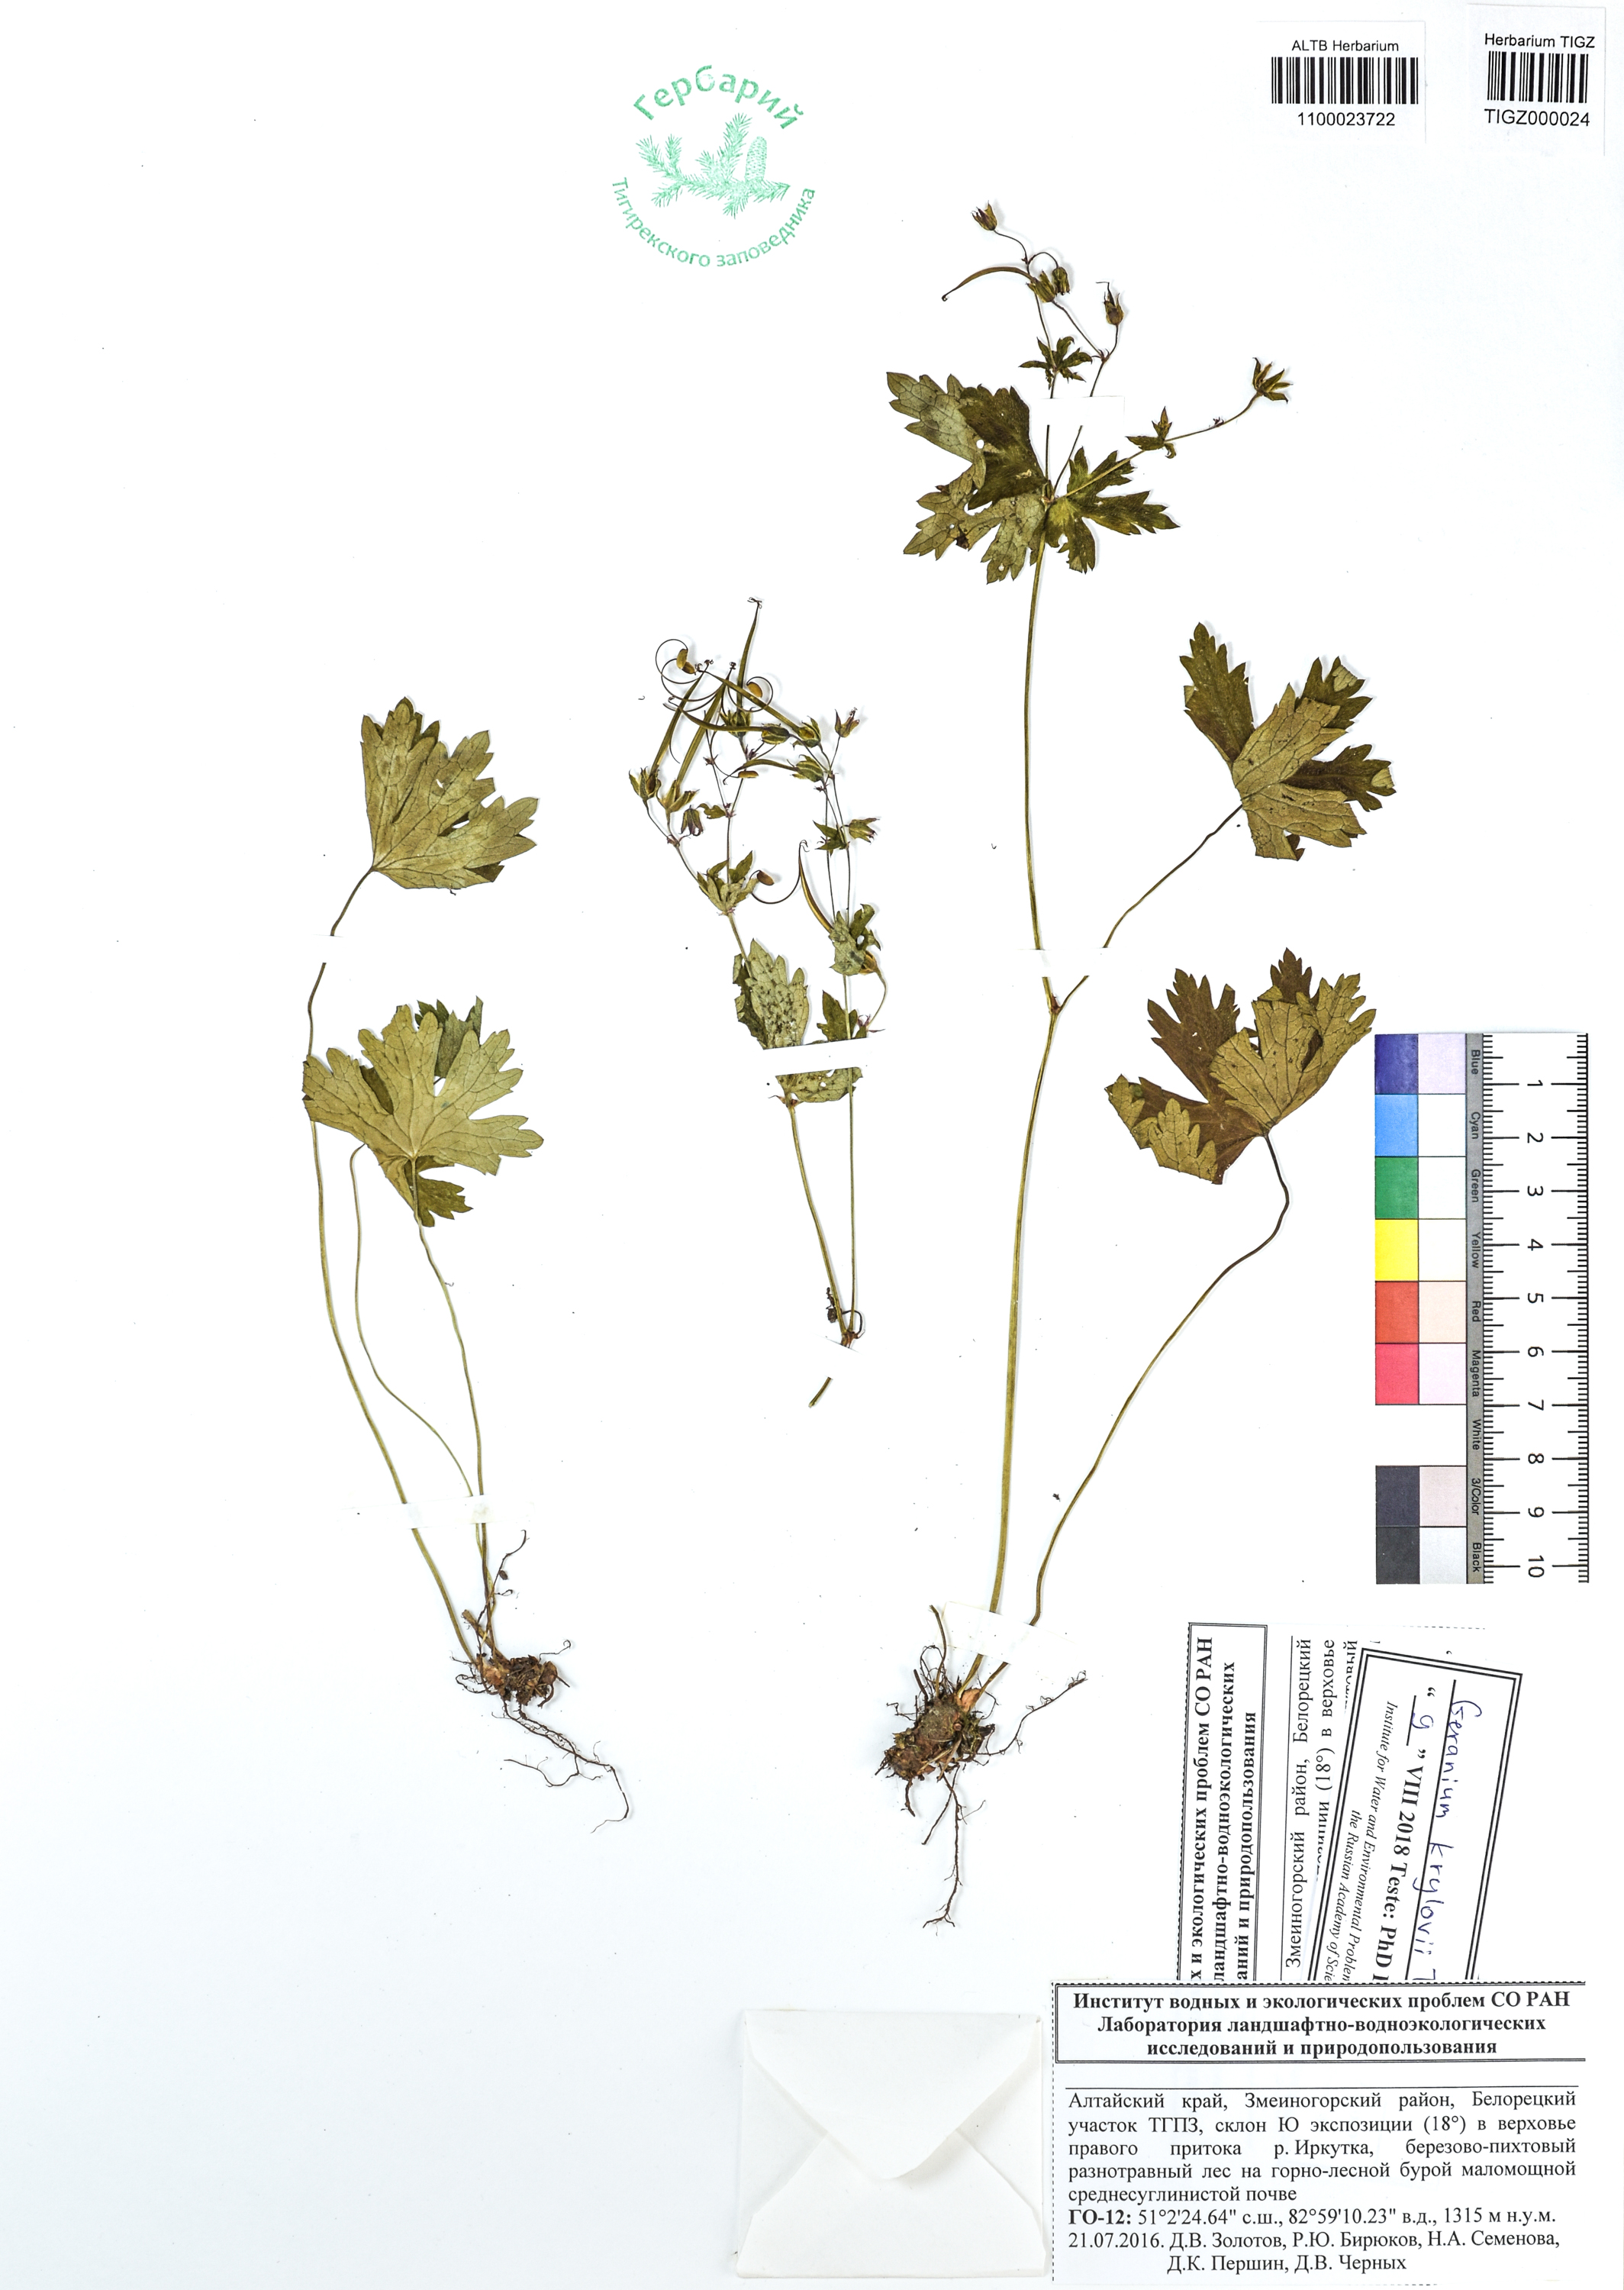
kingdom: Plantae
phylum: Tracheophyta
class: Magnoliopsida
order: Geraniales
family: Geraniaceae
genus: Geranium
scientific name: Geranium sylvaticum
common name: Wood crane's-bill
